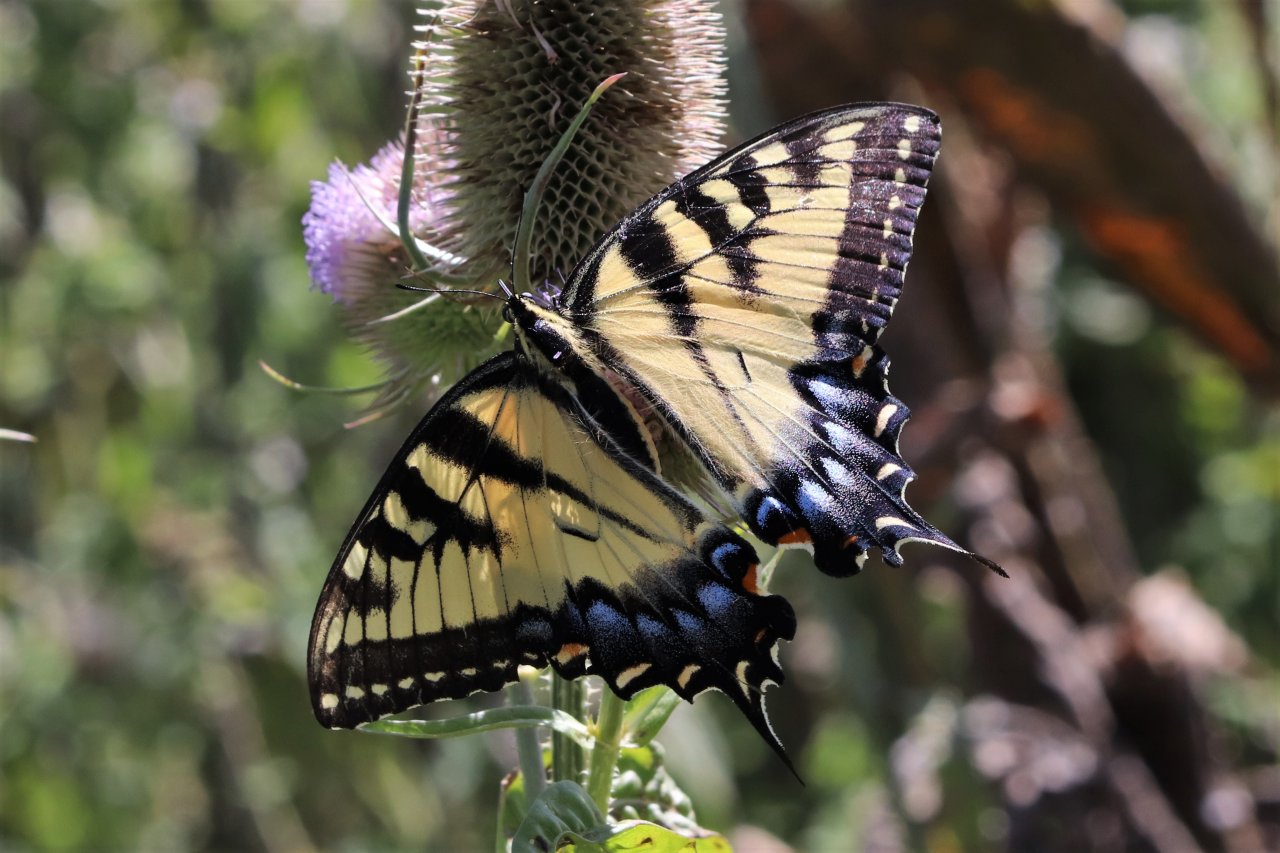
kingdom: Animalia
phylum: Arthropoda
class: Insecta
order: Lepidoptera
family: Papilionidae
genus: Pterourus
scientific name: Pterourus glaucus
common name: Eastern Tiger Swallowtail
